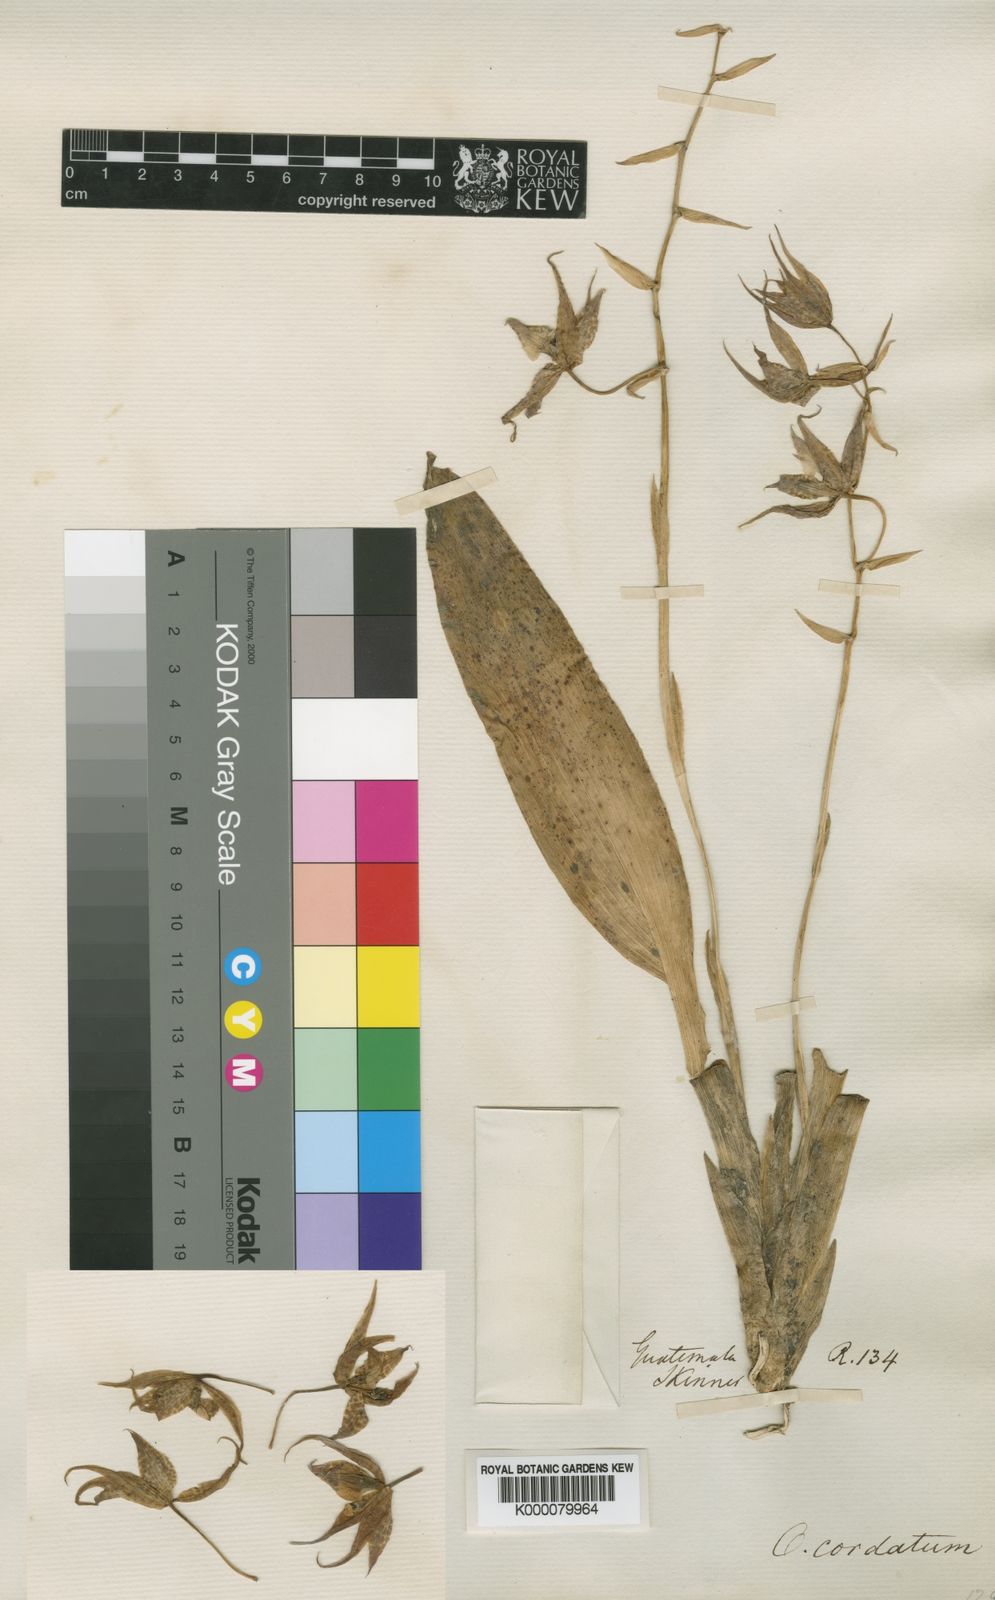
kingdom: Plantae
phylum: Tracheophyta
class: Liliopsida
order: Asparagales
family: Orchidaceae
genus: Rhynchostele
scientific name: Rhynchostele cordata
